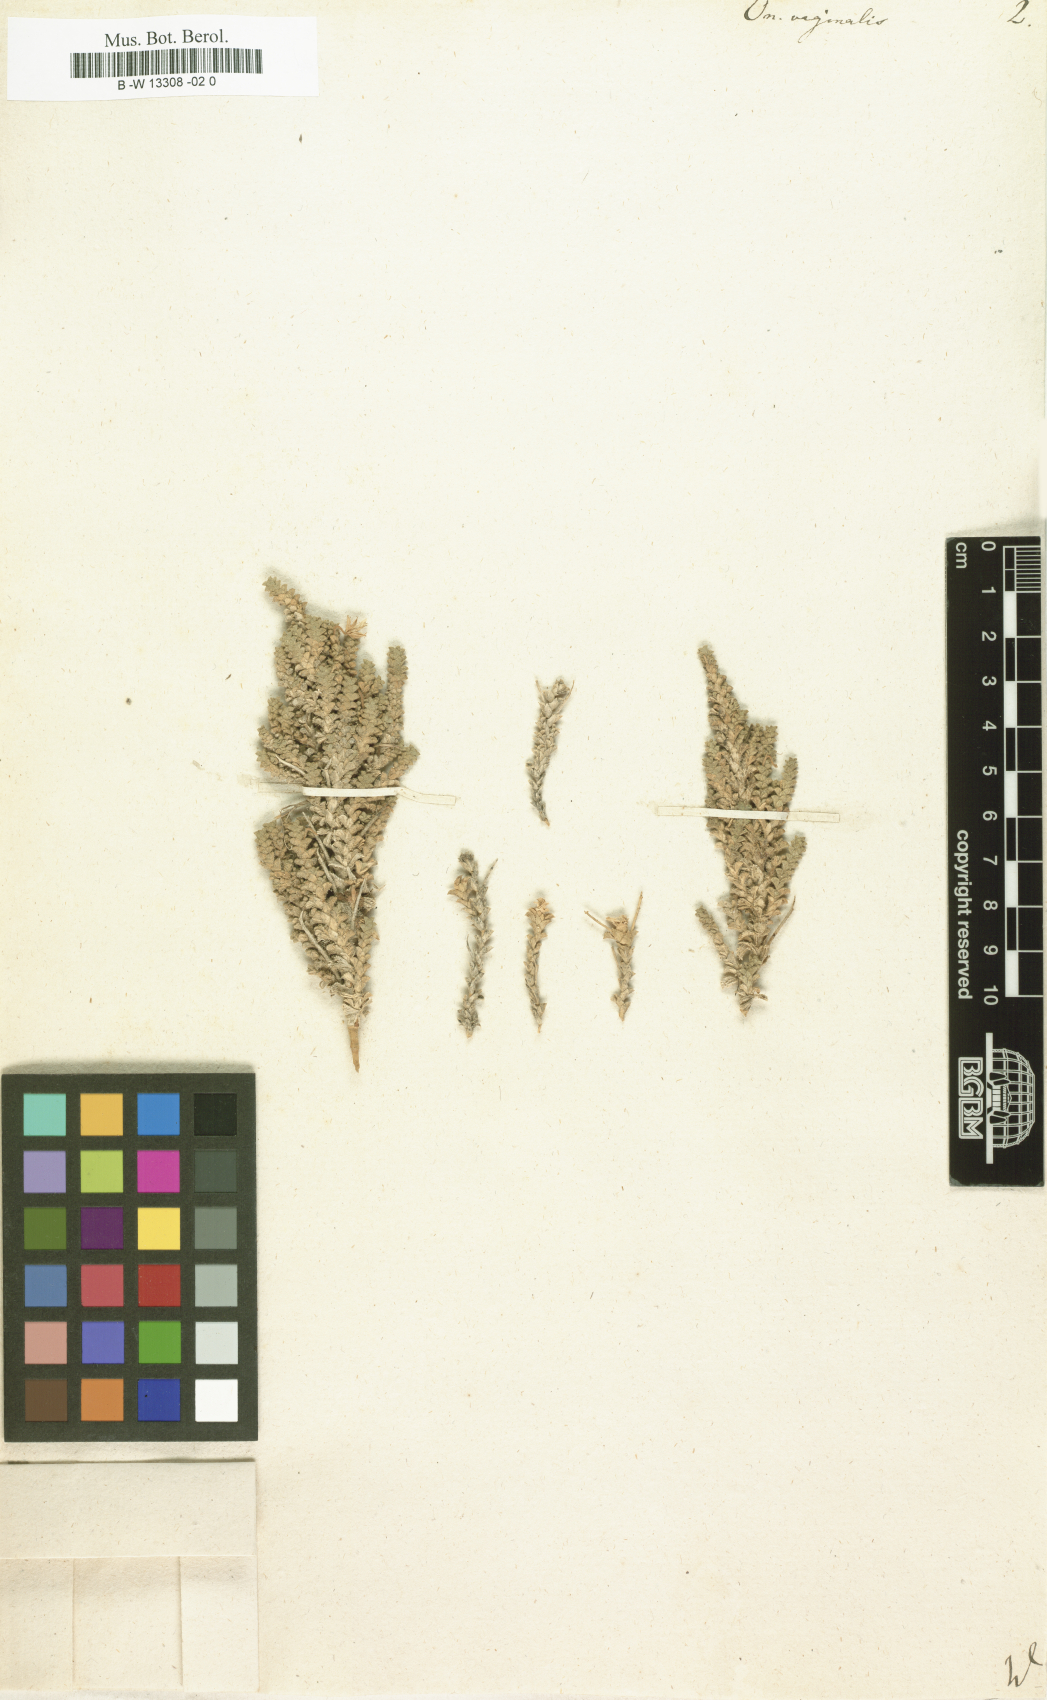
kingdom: Plantae
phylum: Tracheophyta
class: Magnoliopsida
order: Fabales
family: Fabaceae
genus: Ononis
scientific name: Ononis vaginalis
